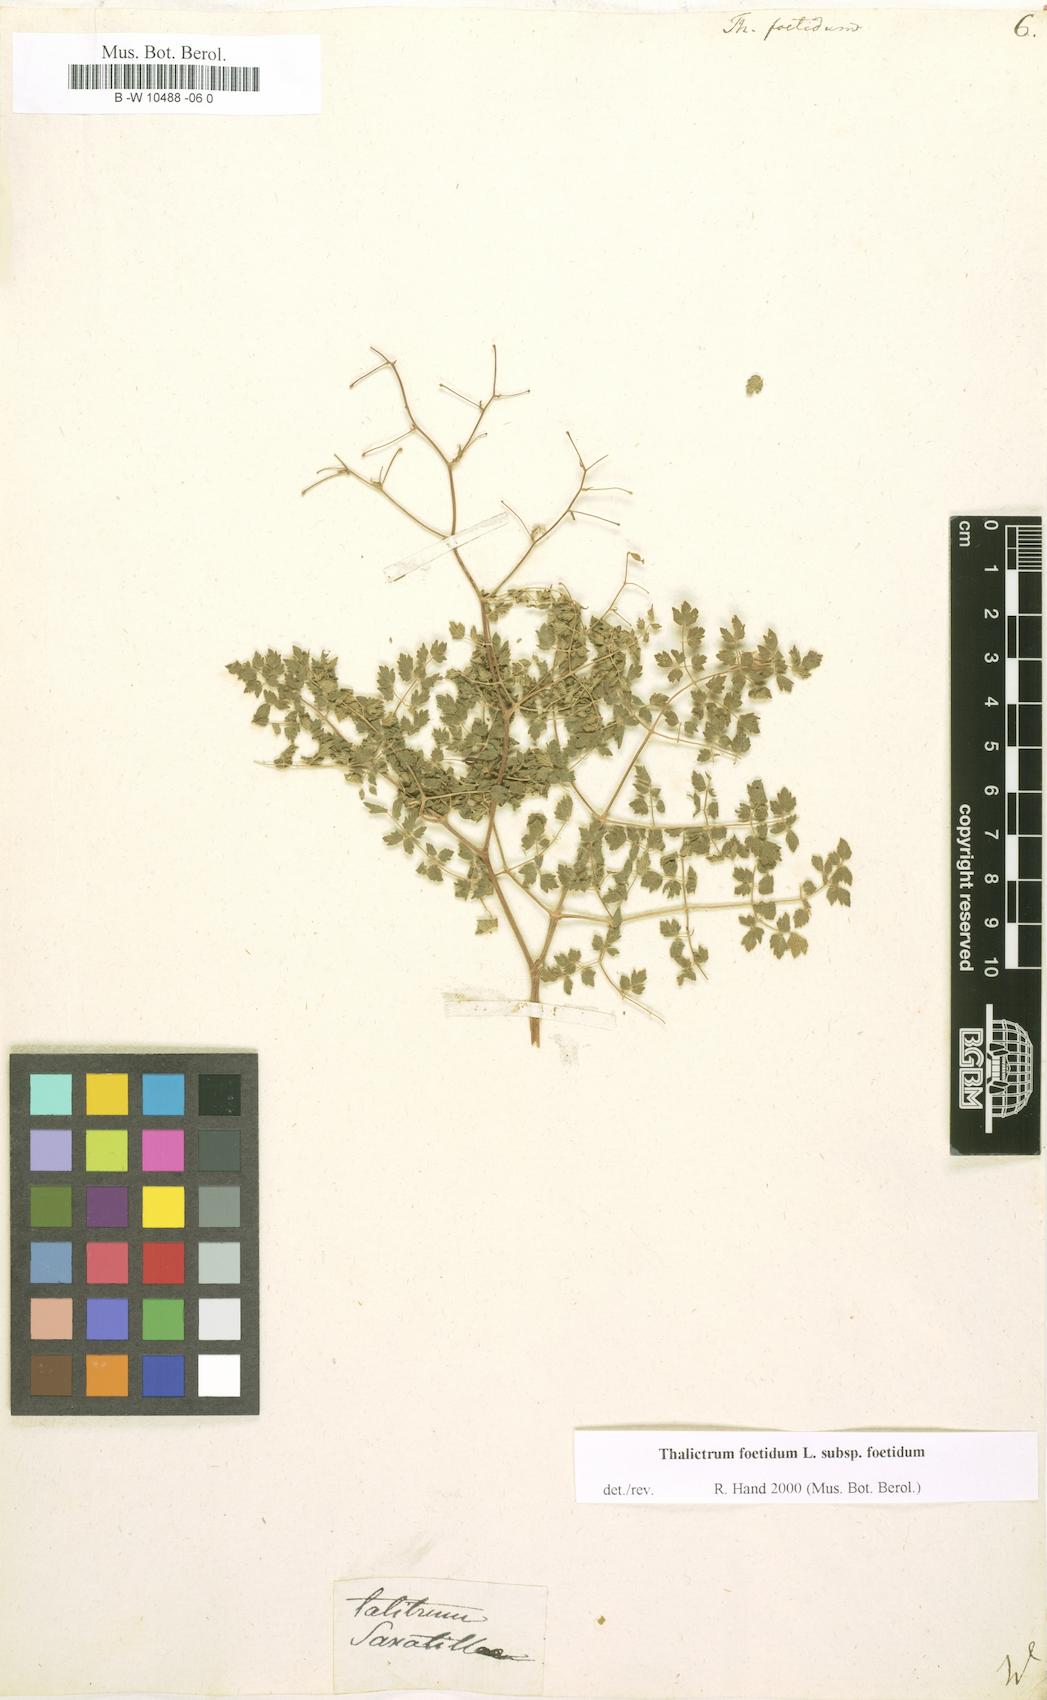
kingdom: Plantae
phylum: Tracheophyta
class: Magnoliopsida
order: Ranunculales
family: Ranunculaceae
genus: Thalictrum
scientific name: Thalictrum foetidum
